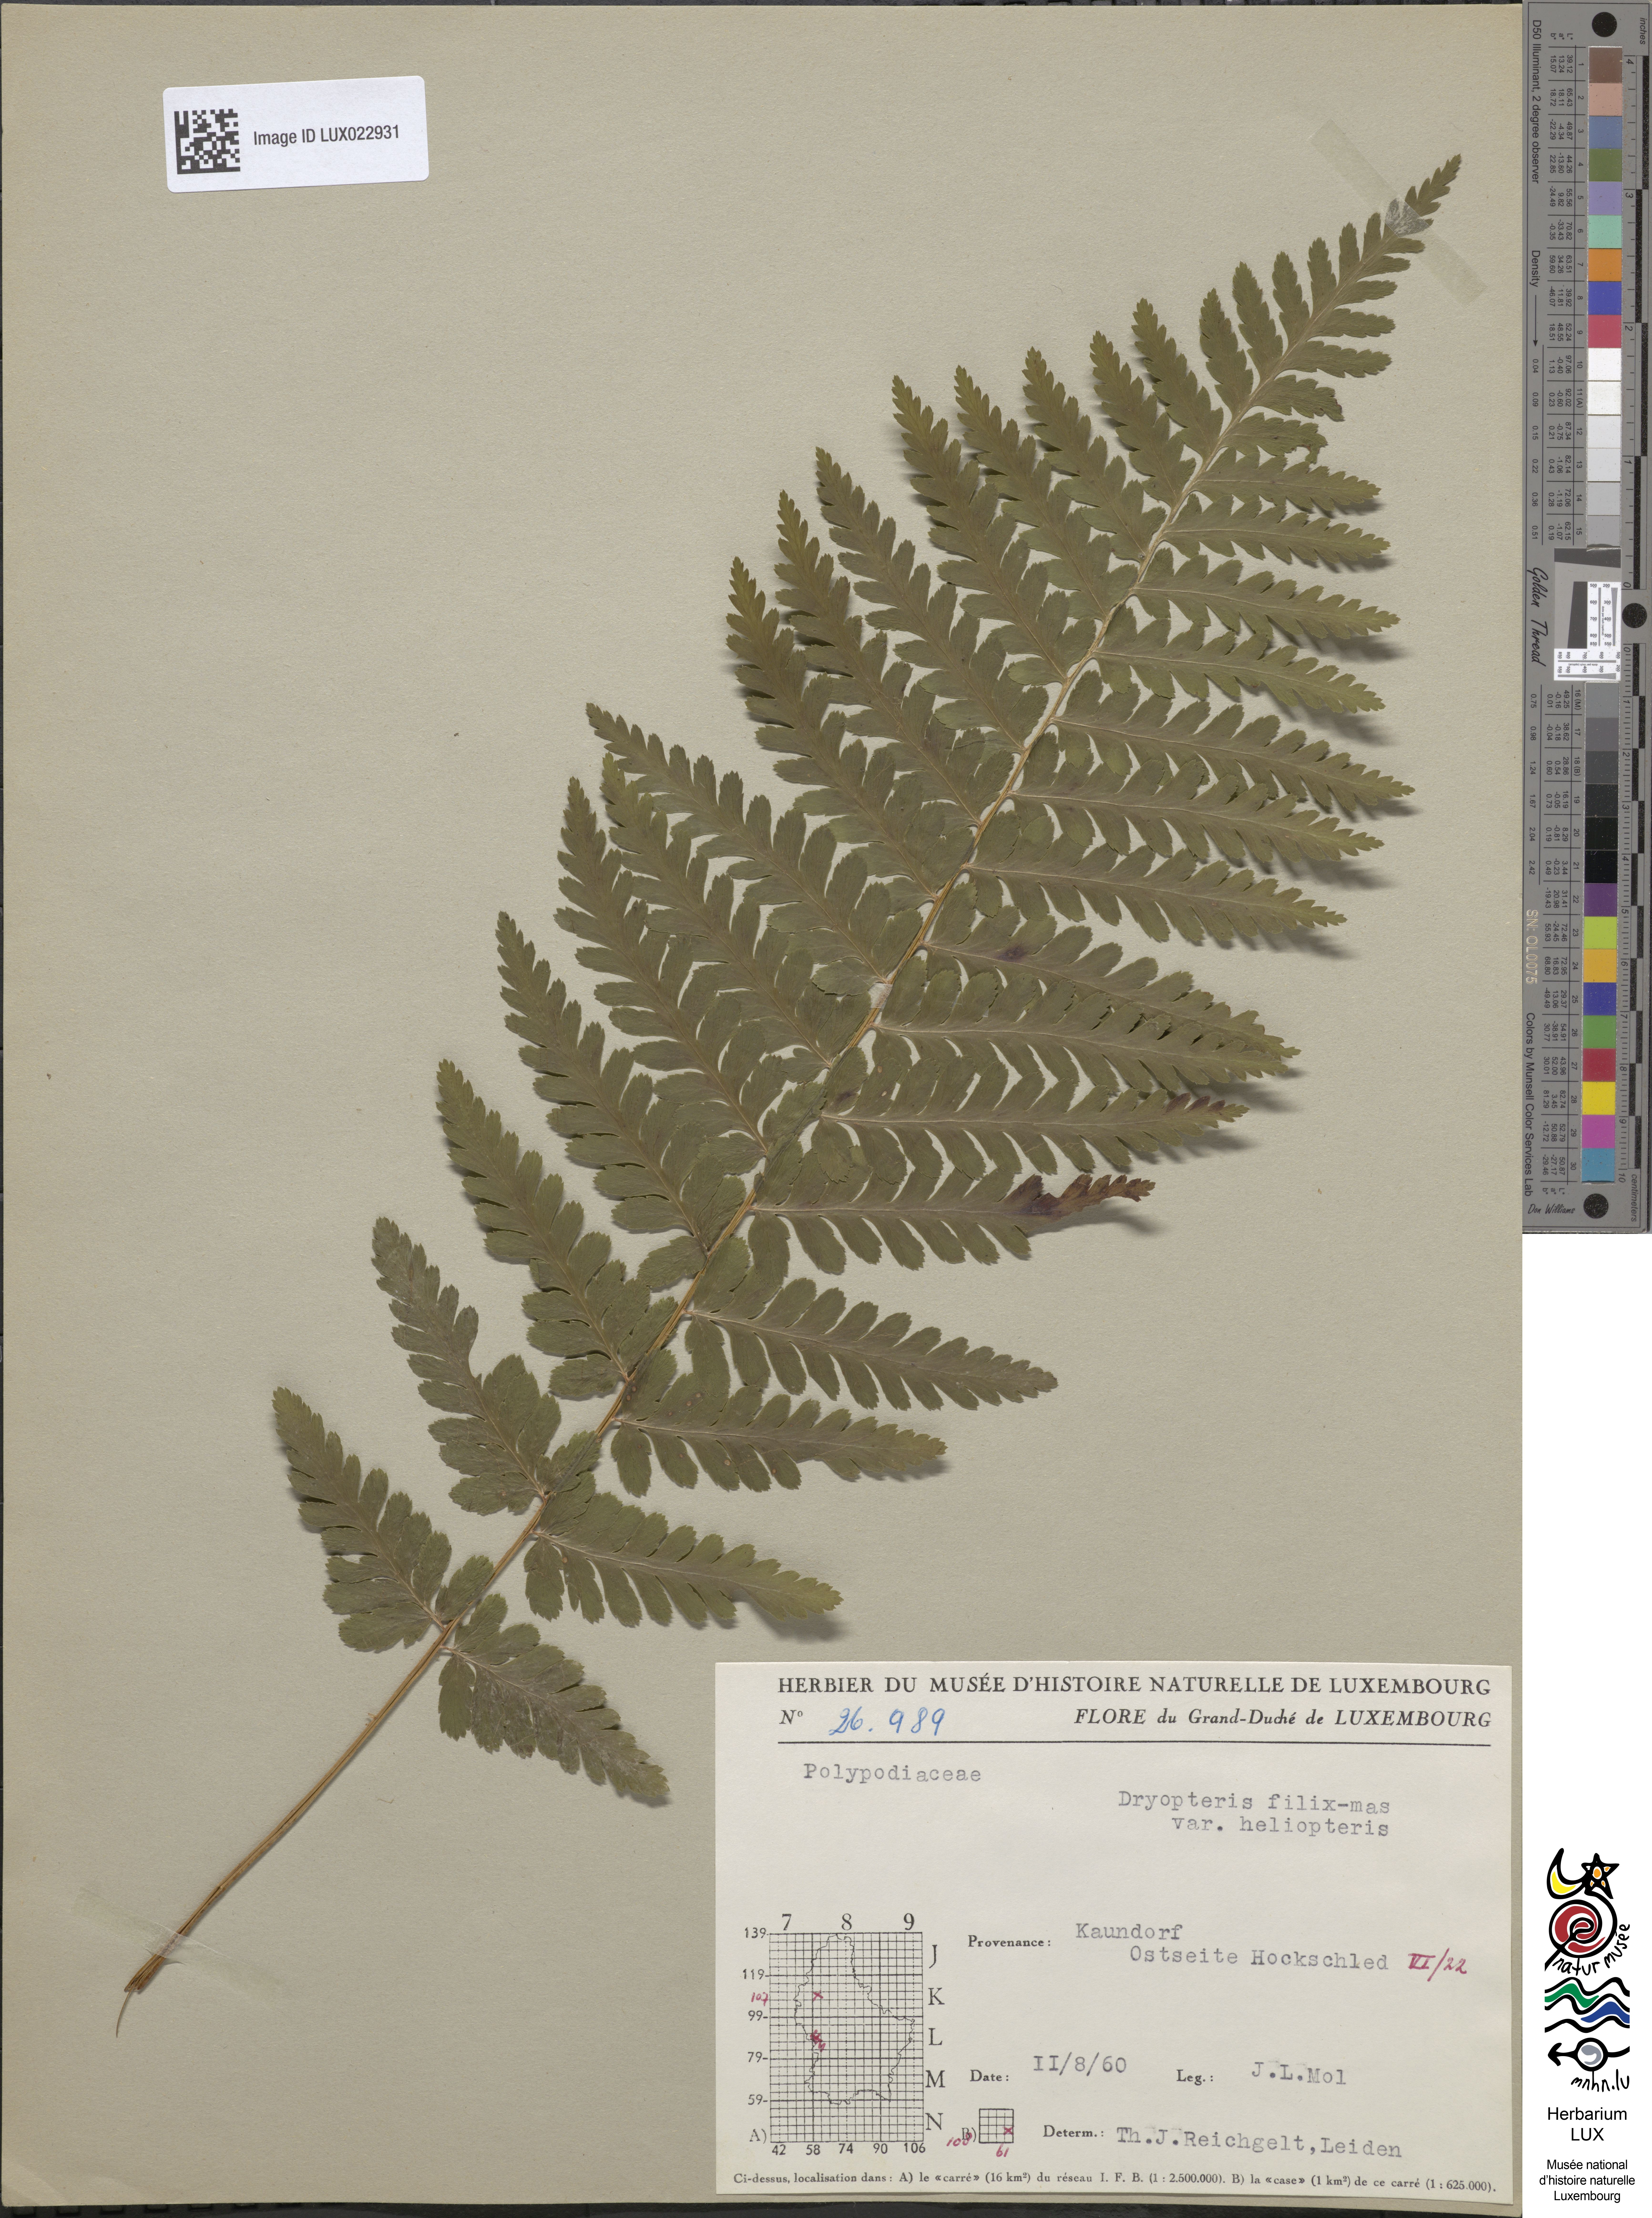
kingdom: Plantae
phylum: Tracheophyta
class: Polypodiopsida
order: Polypodiales
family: Dryopteridaceae
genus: Dryopteris
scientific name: Dryopteris filix-mas
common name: Male fern
